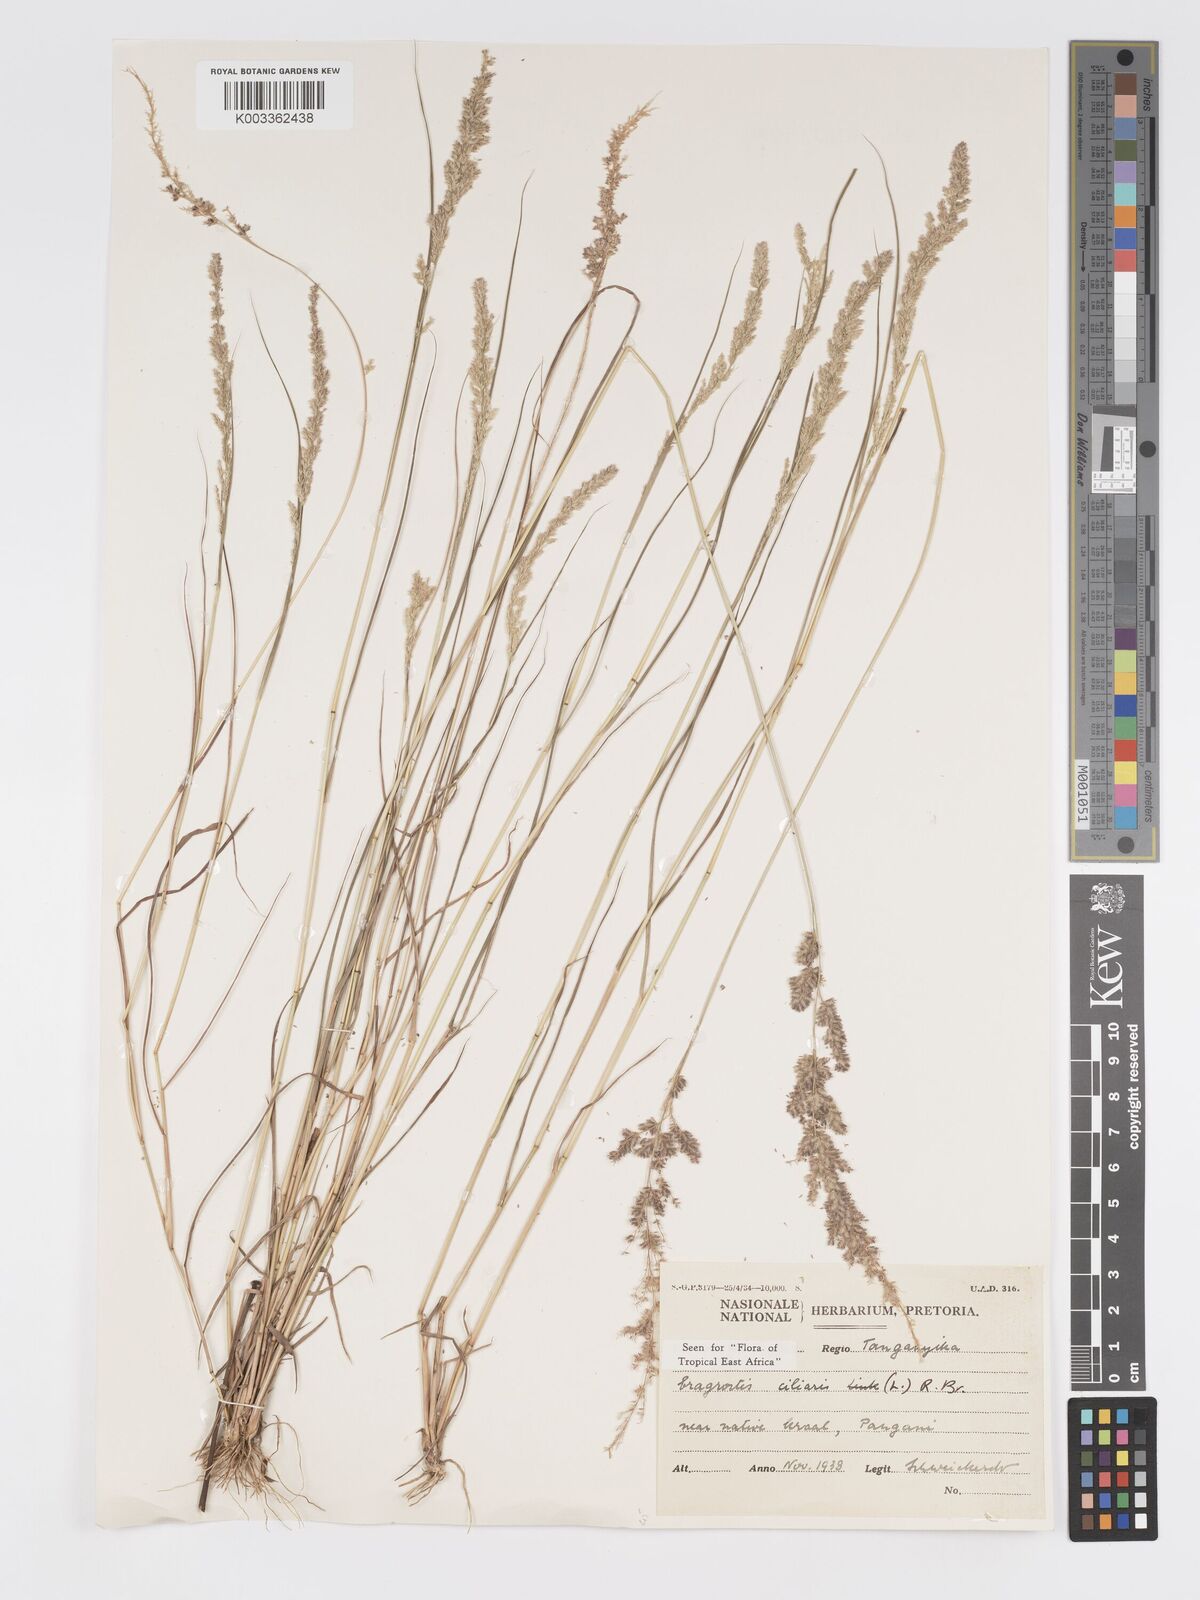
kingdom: Plantae
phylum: Tracheophyta
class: Liliopsida
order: Poales
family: Poaceae
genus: Eragrostis
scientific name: Eragrostis ciliaris
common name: Gophertail lovegrass
